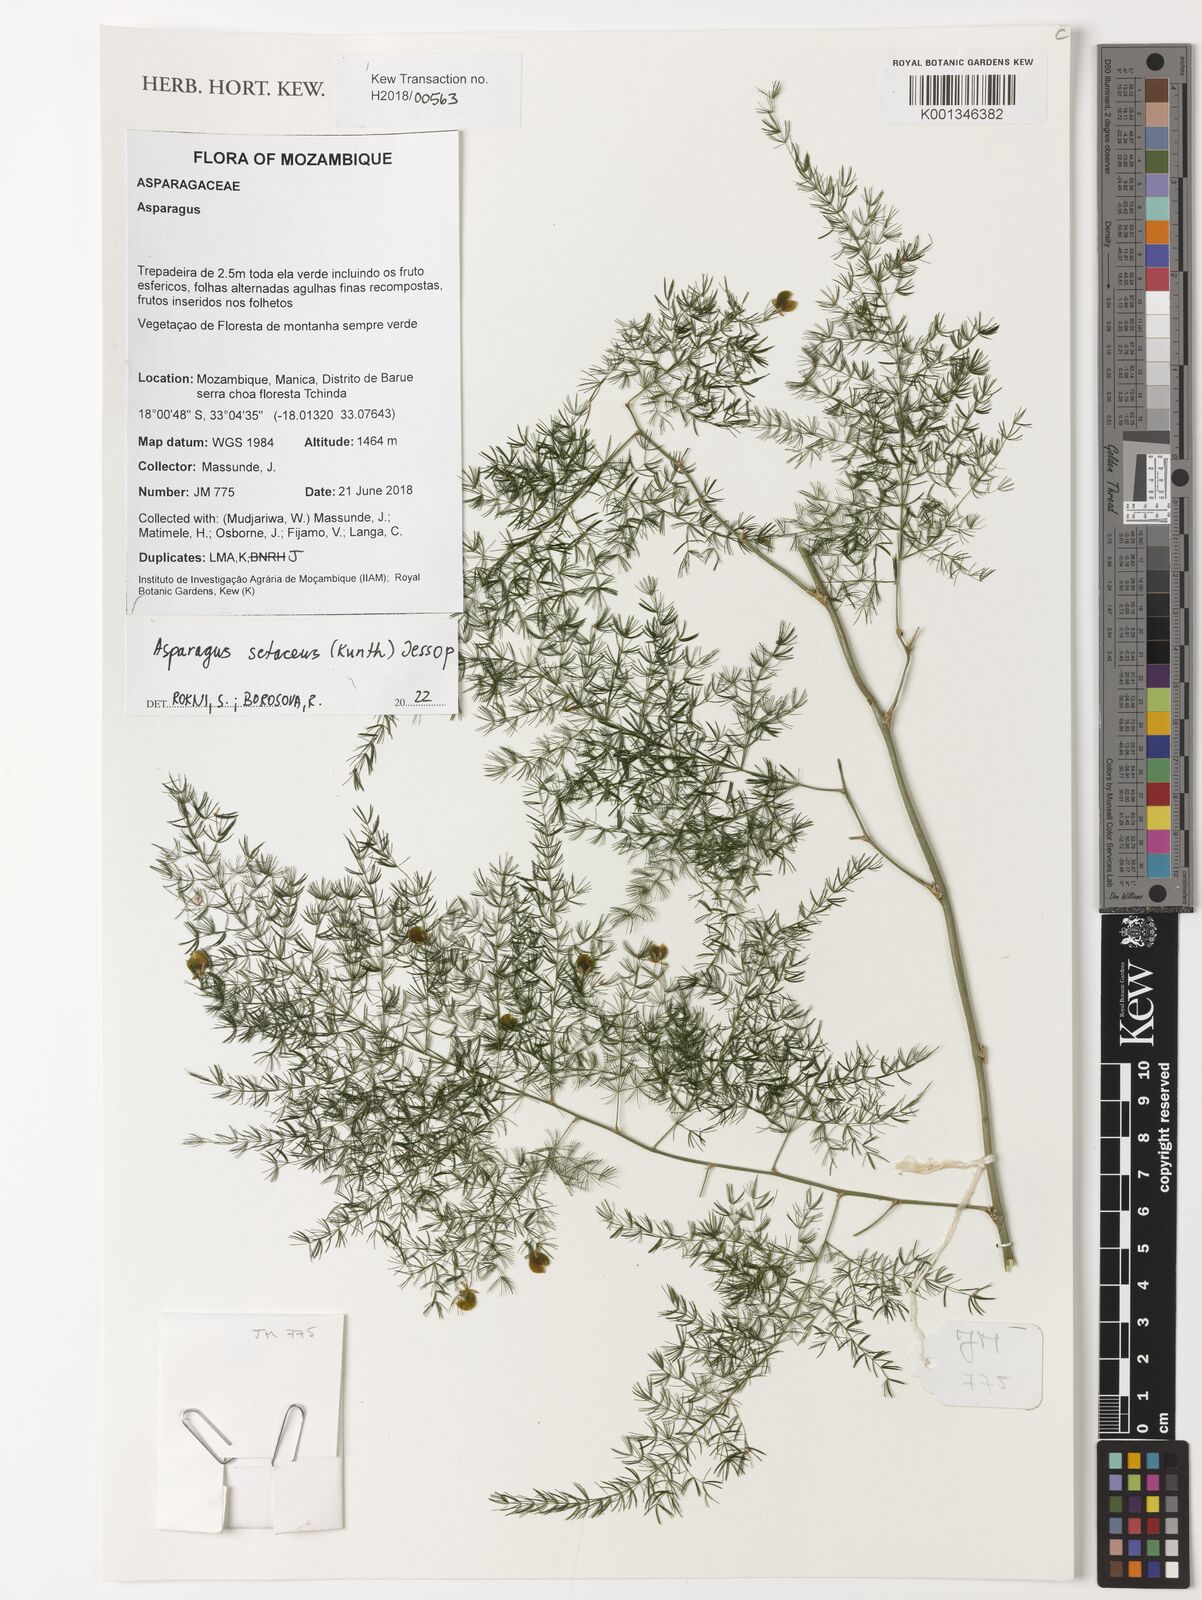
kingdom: Plantae
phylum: Tracheophyta
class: Liliopsida
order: Asparagales
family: Asparagaceae
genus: Asparagus
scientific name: Asparagus setaceus
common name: Common asparagus fern
